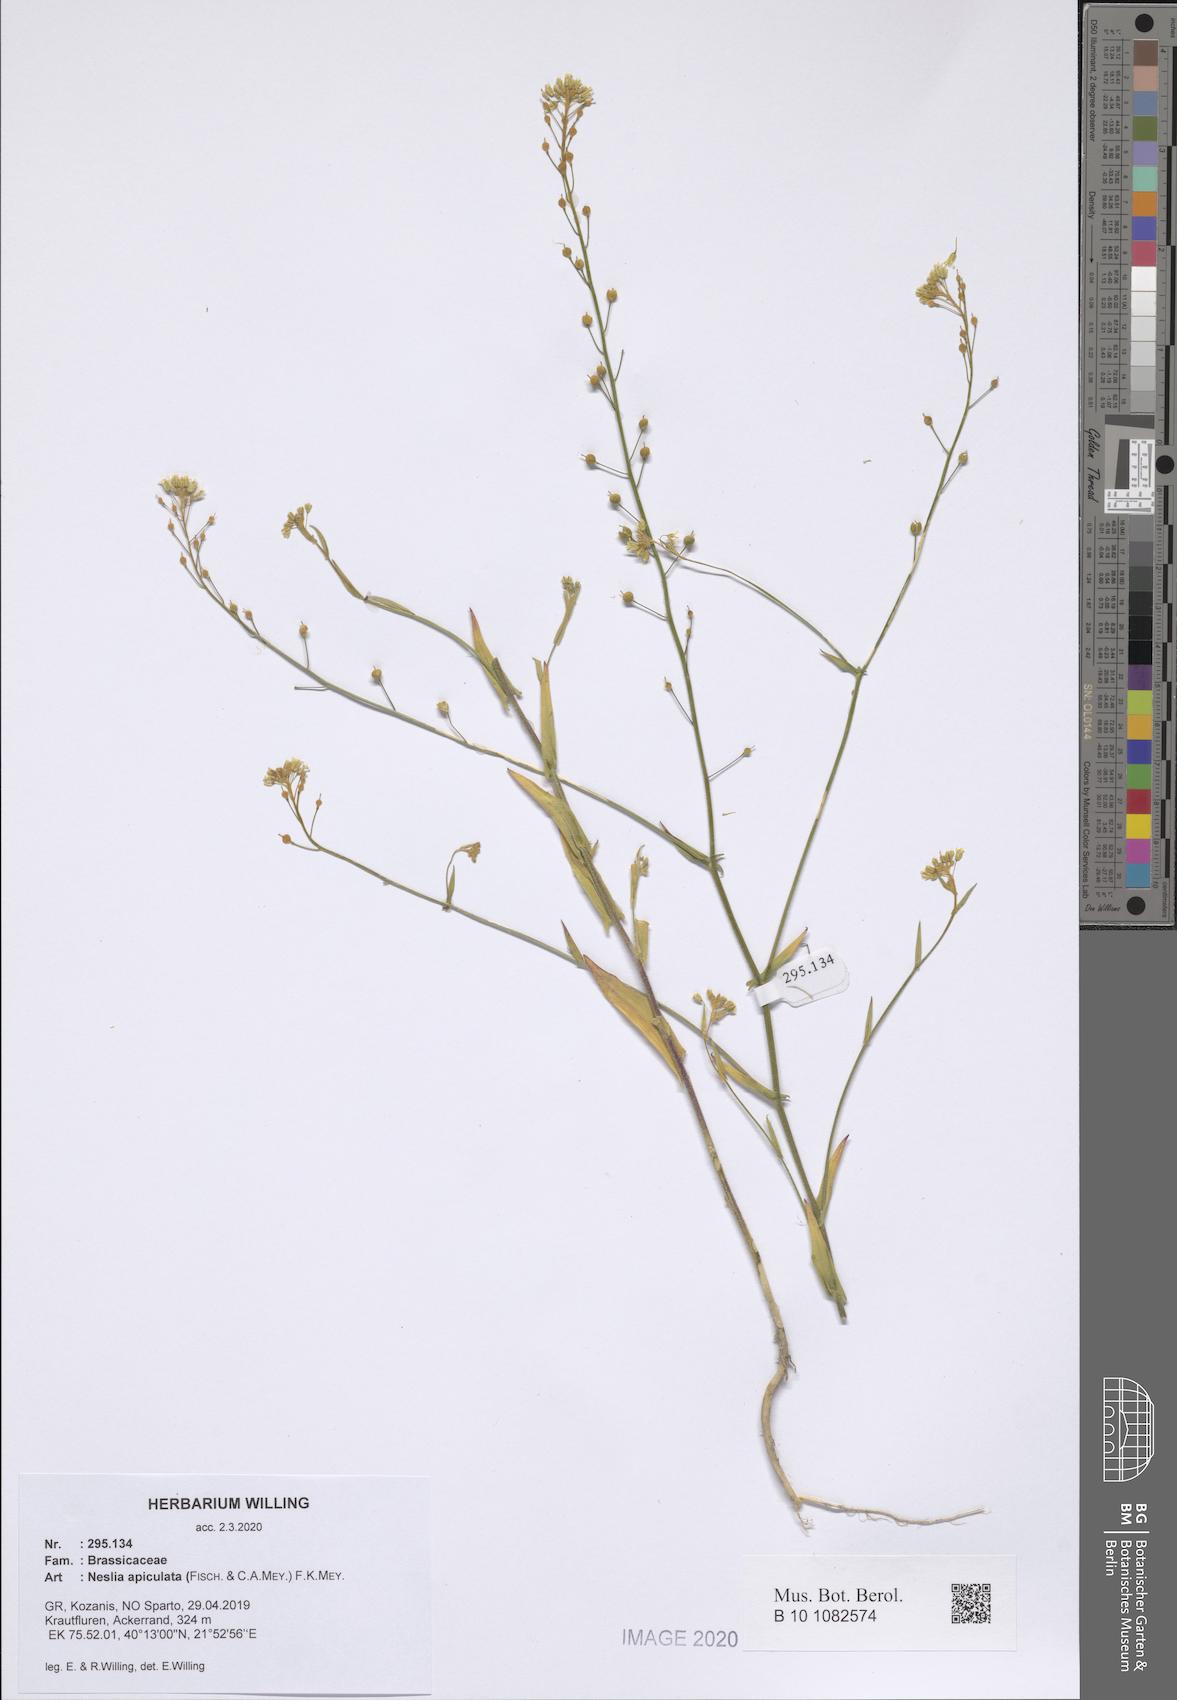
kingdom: Plantae
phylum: Tracheophyta
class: Magnoliopsida
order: Brassicales
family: Brassicaceae
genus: Neslia
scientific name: Neslia paniculata
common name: Ball mustard
